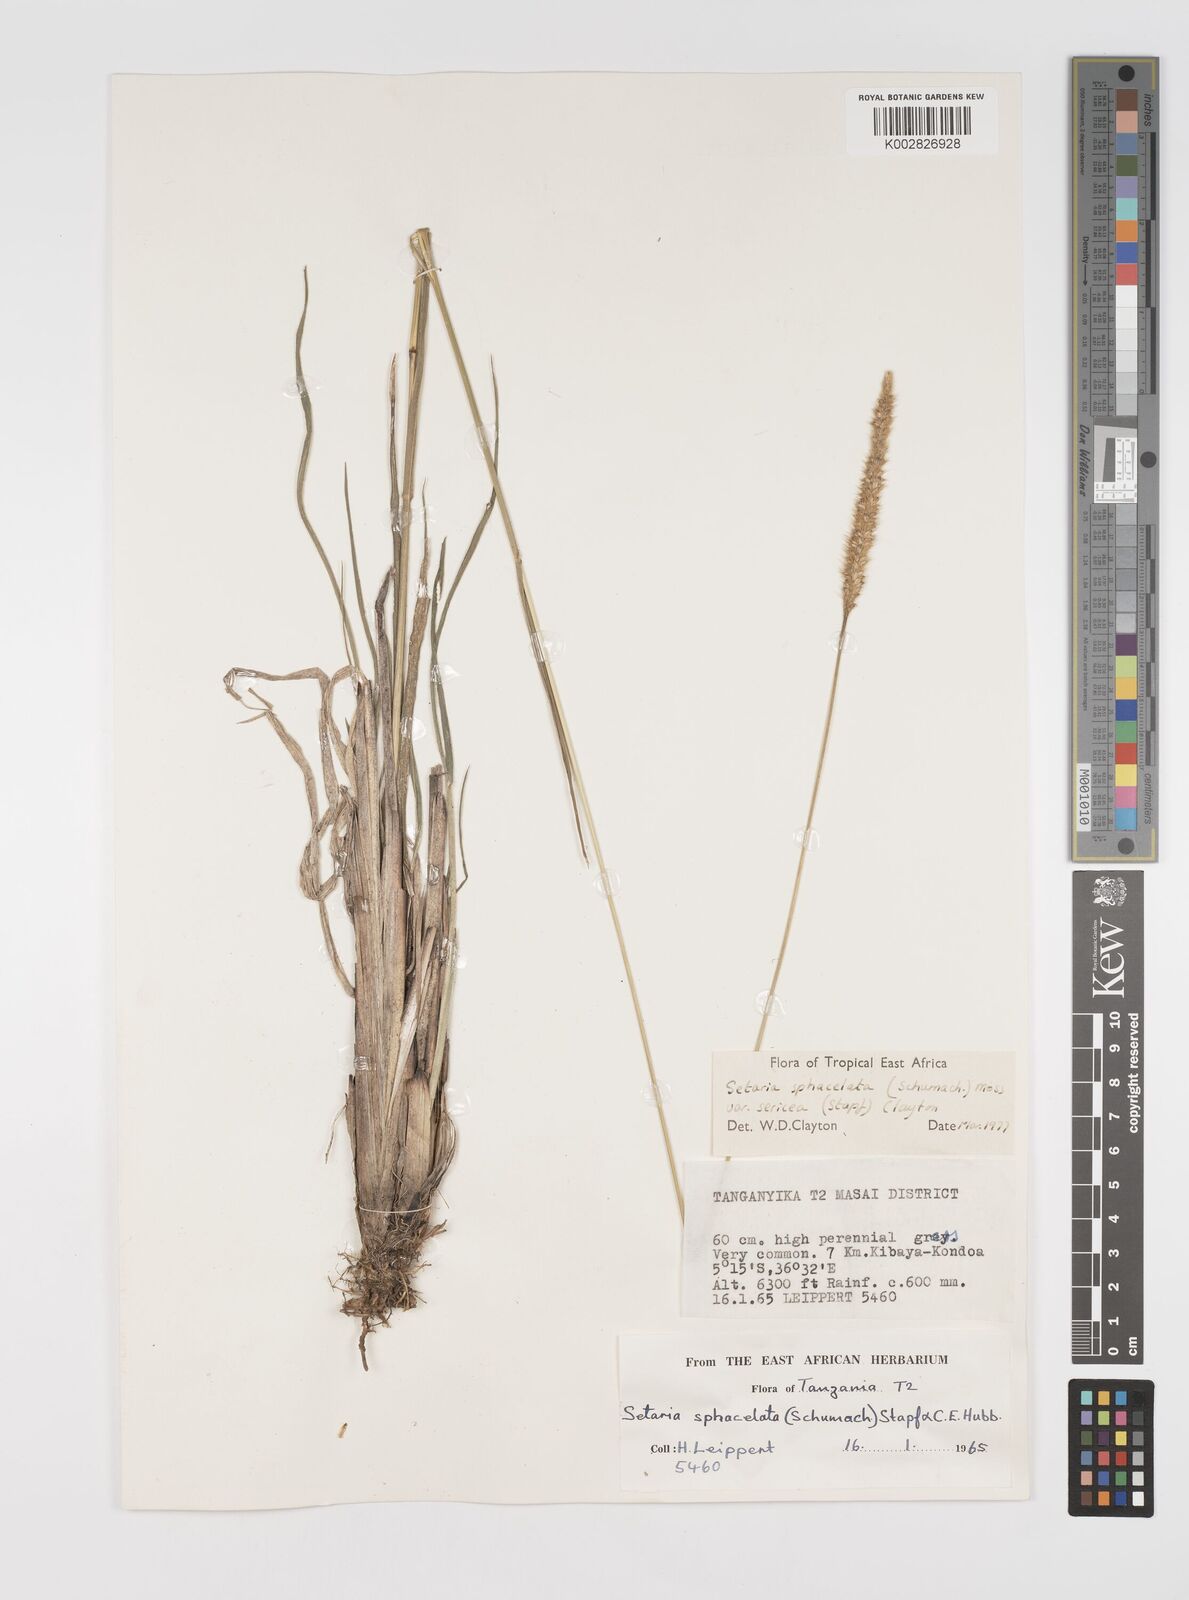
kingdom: Plantae
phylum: Tracheophyta
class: Liliopsida
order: Poales
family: Poaceae
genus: Setaria
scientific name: Setaria sphacelata
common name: African bristlegrass
